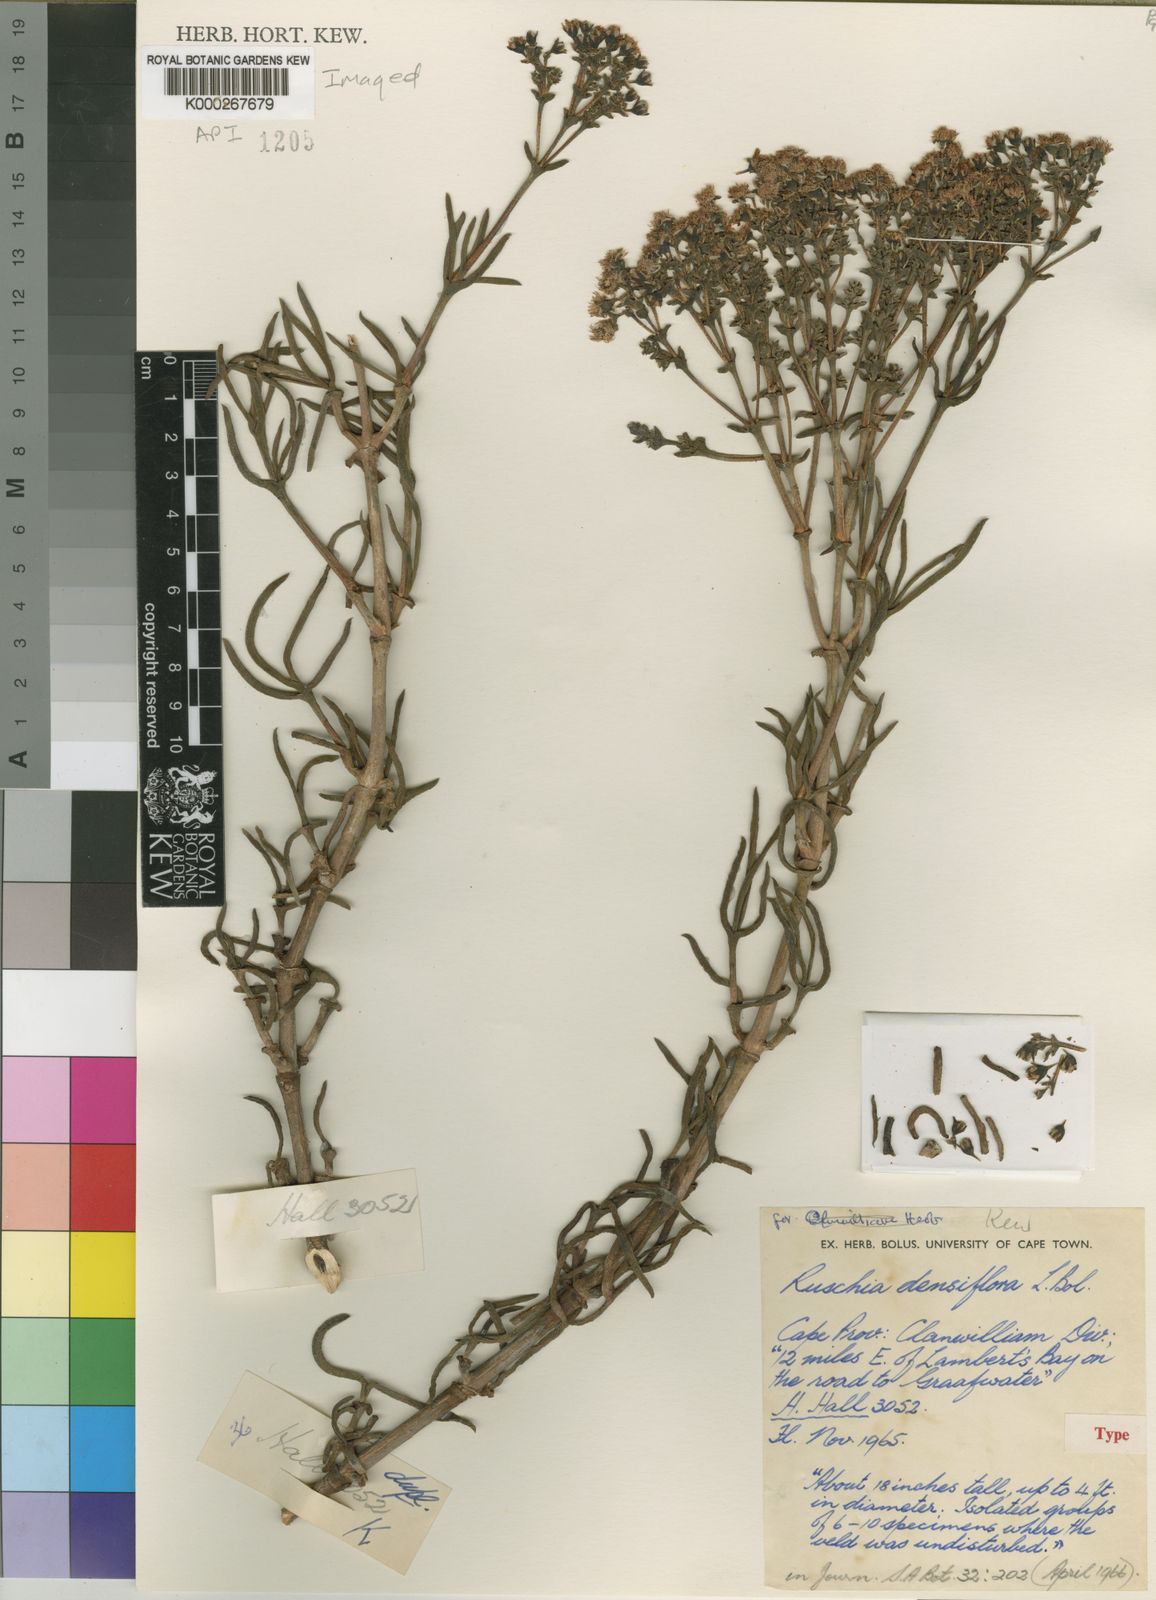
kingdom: Plantae
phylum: Tracheophyta
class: Magnoliopsida
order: Caryophyllales
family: Aizoaceae
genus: Ruschia
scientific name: Ruschia densiflora
